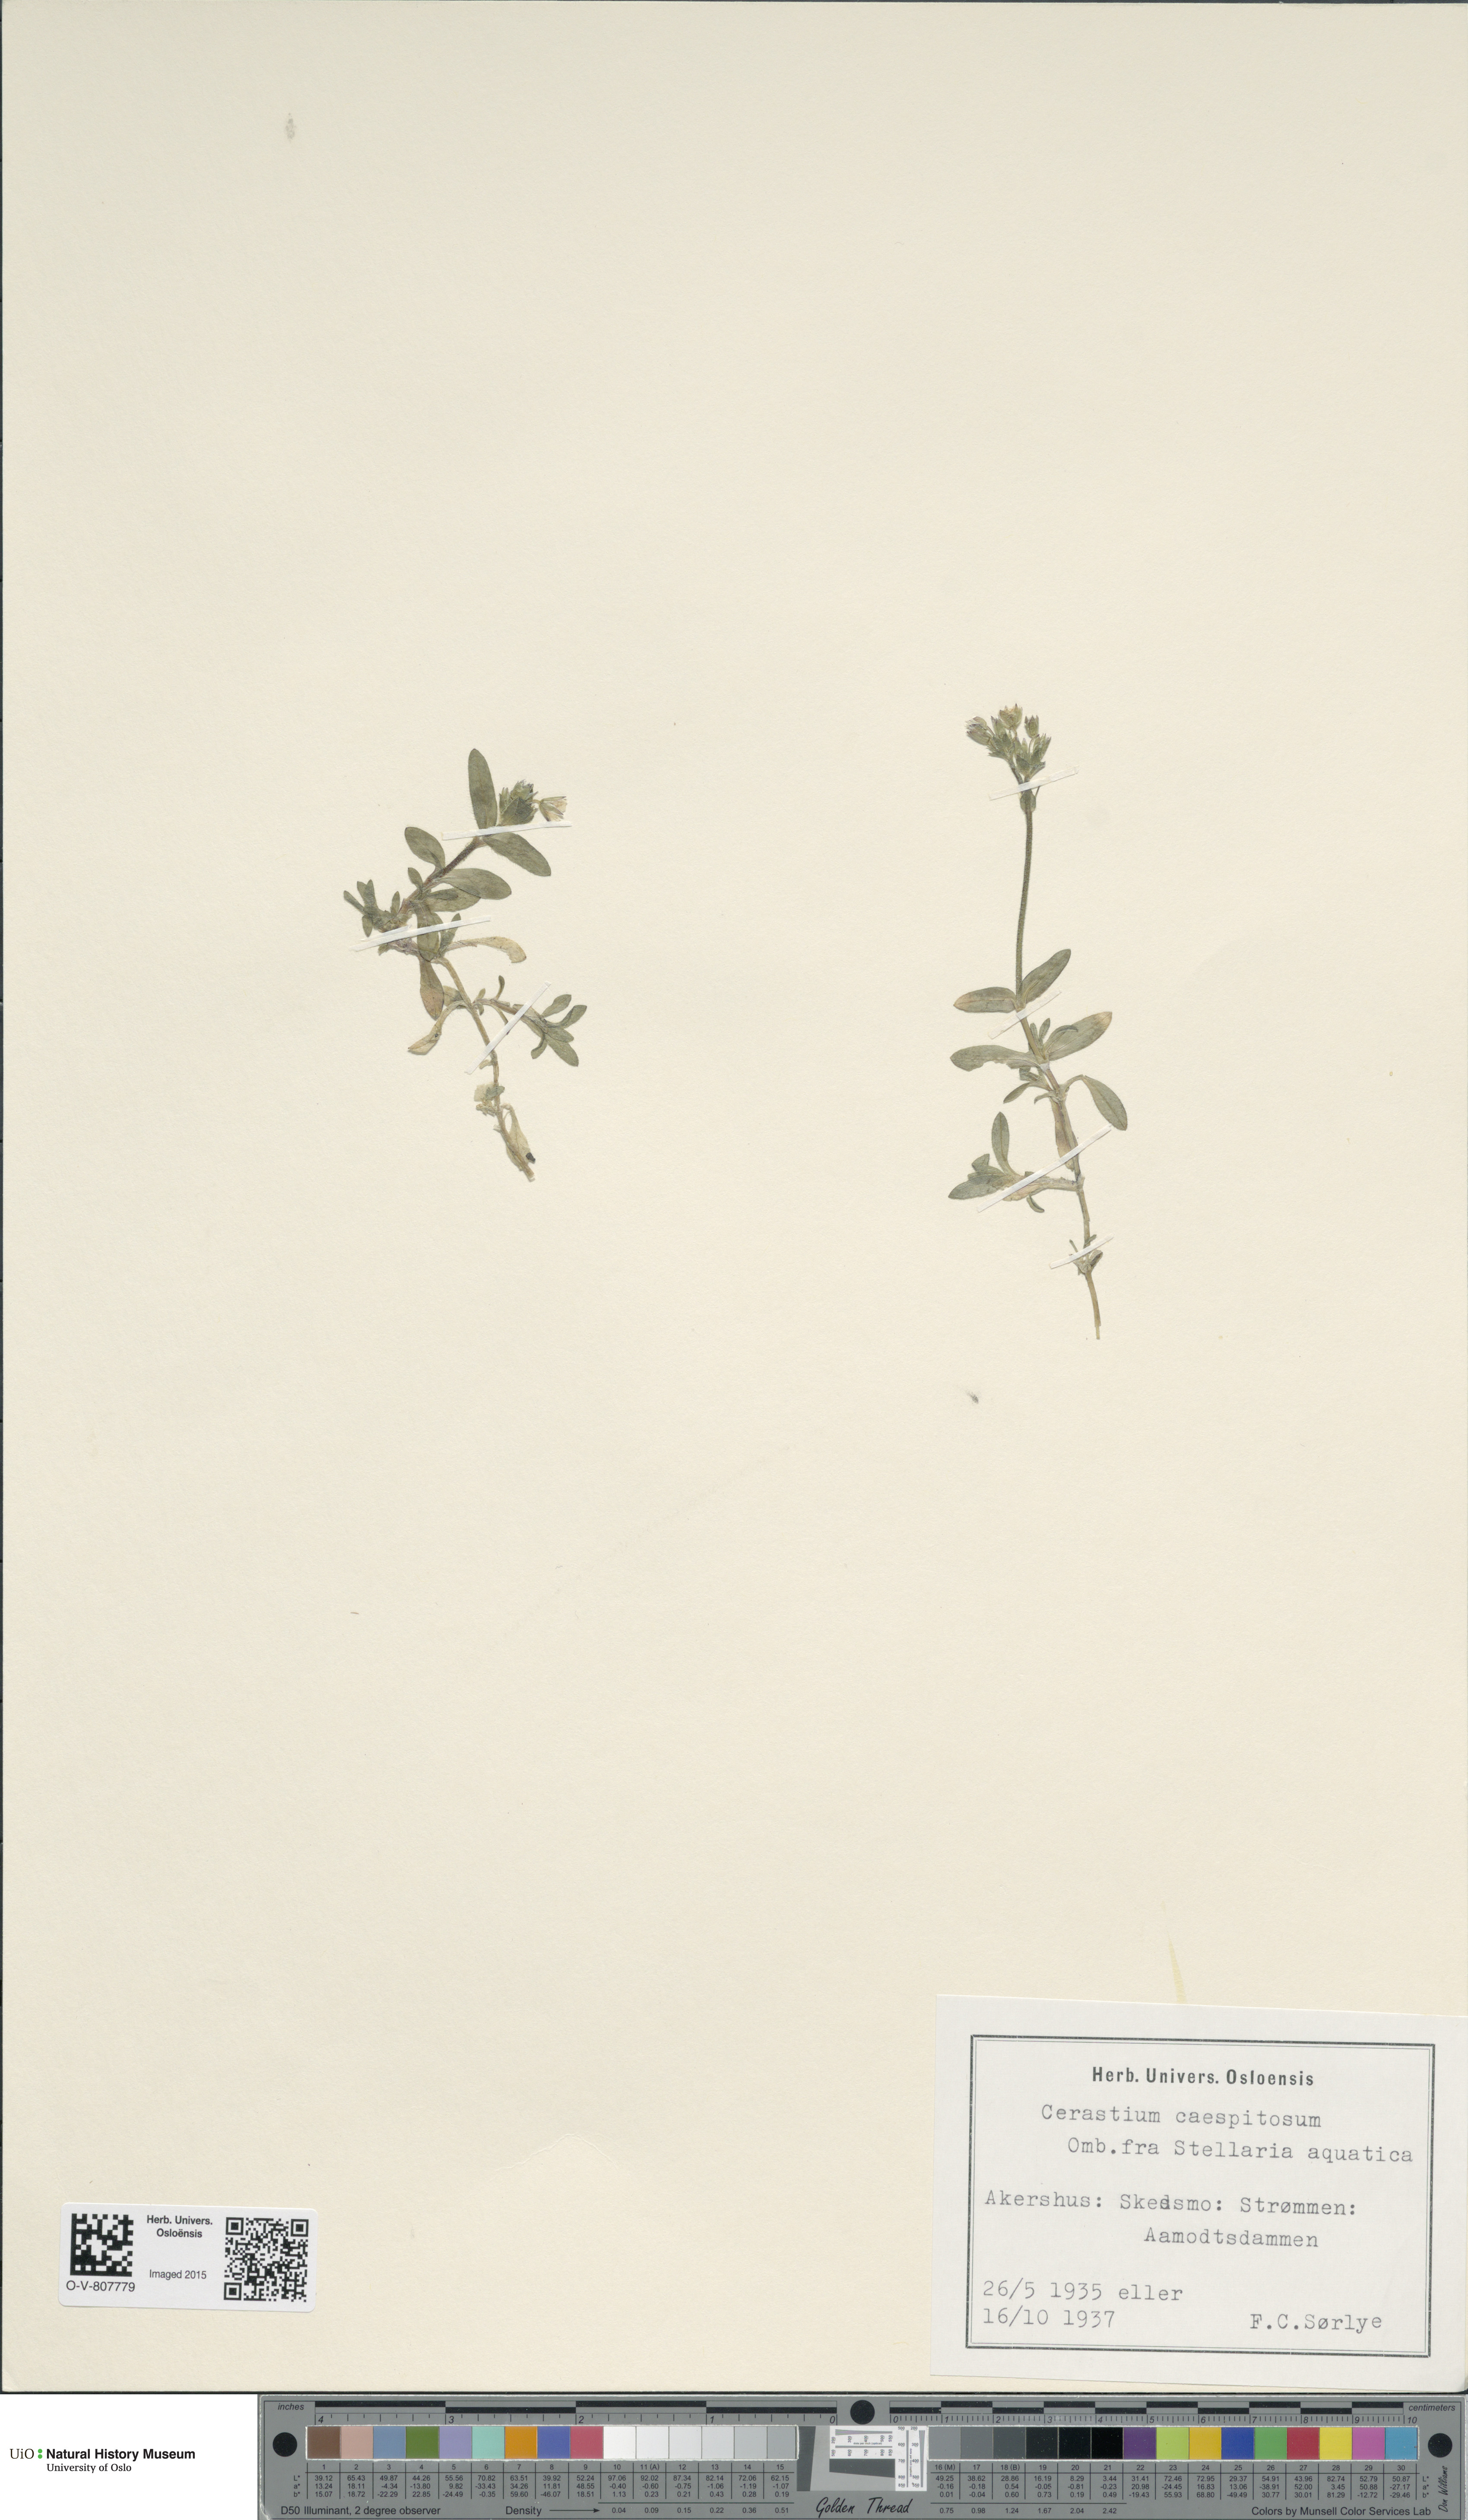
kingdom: Plantae
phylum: Tracheophyta
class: Magnoliopsida
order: Caryophyllales
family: Caryophyllaceae
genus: Cerastium
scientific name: Cerastium holosteoides
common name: Big chickweed
